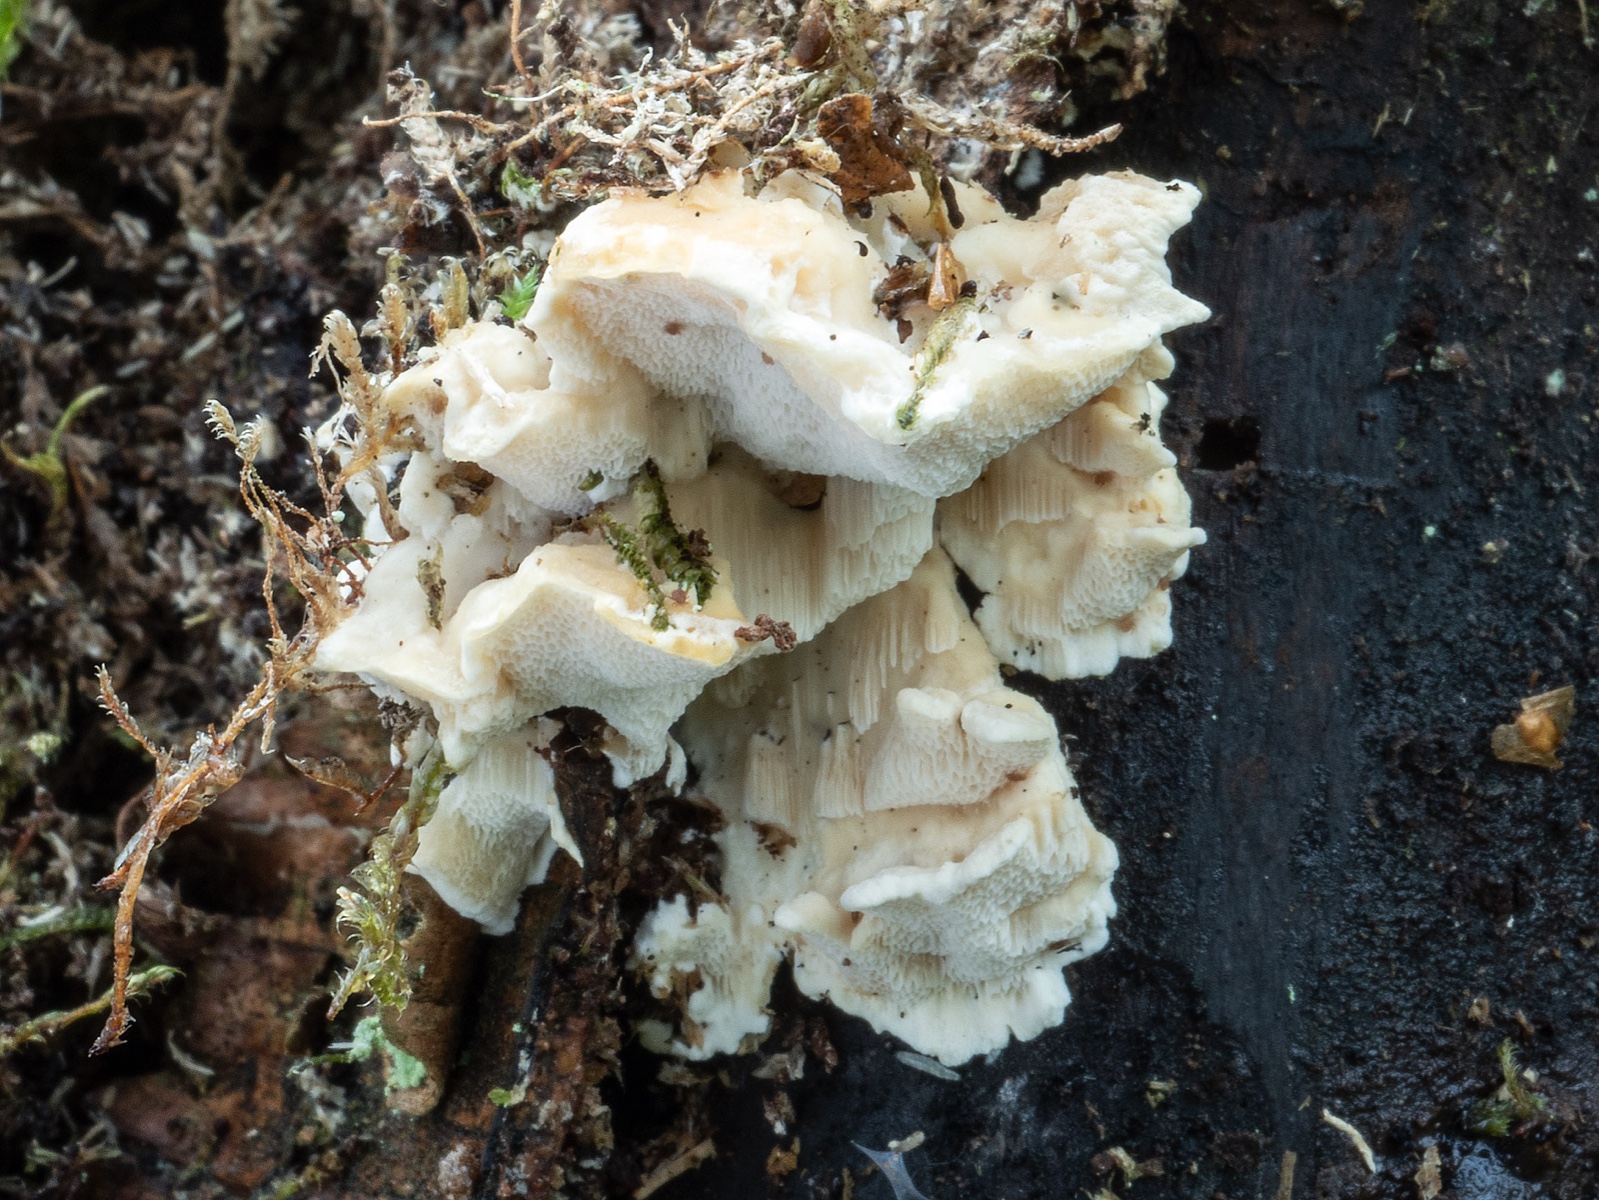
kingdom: Fungi
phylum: Basidiomycota
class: Agaricomycetes
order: Polyporales
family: Steccherinaceae
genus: Antrodiella
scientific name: Antrodiella pallescens
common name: tønder-elastikporesvamp
